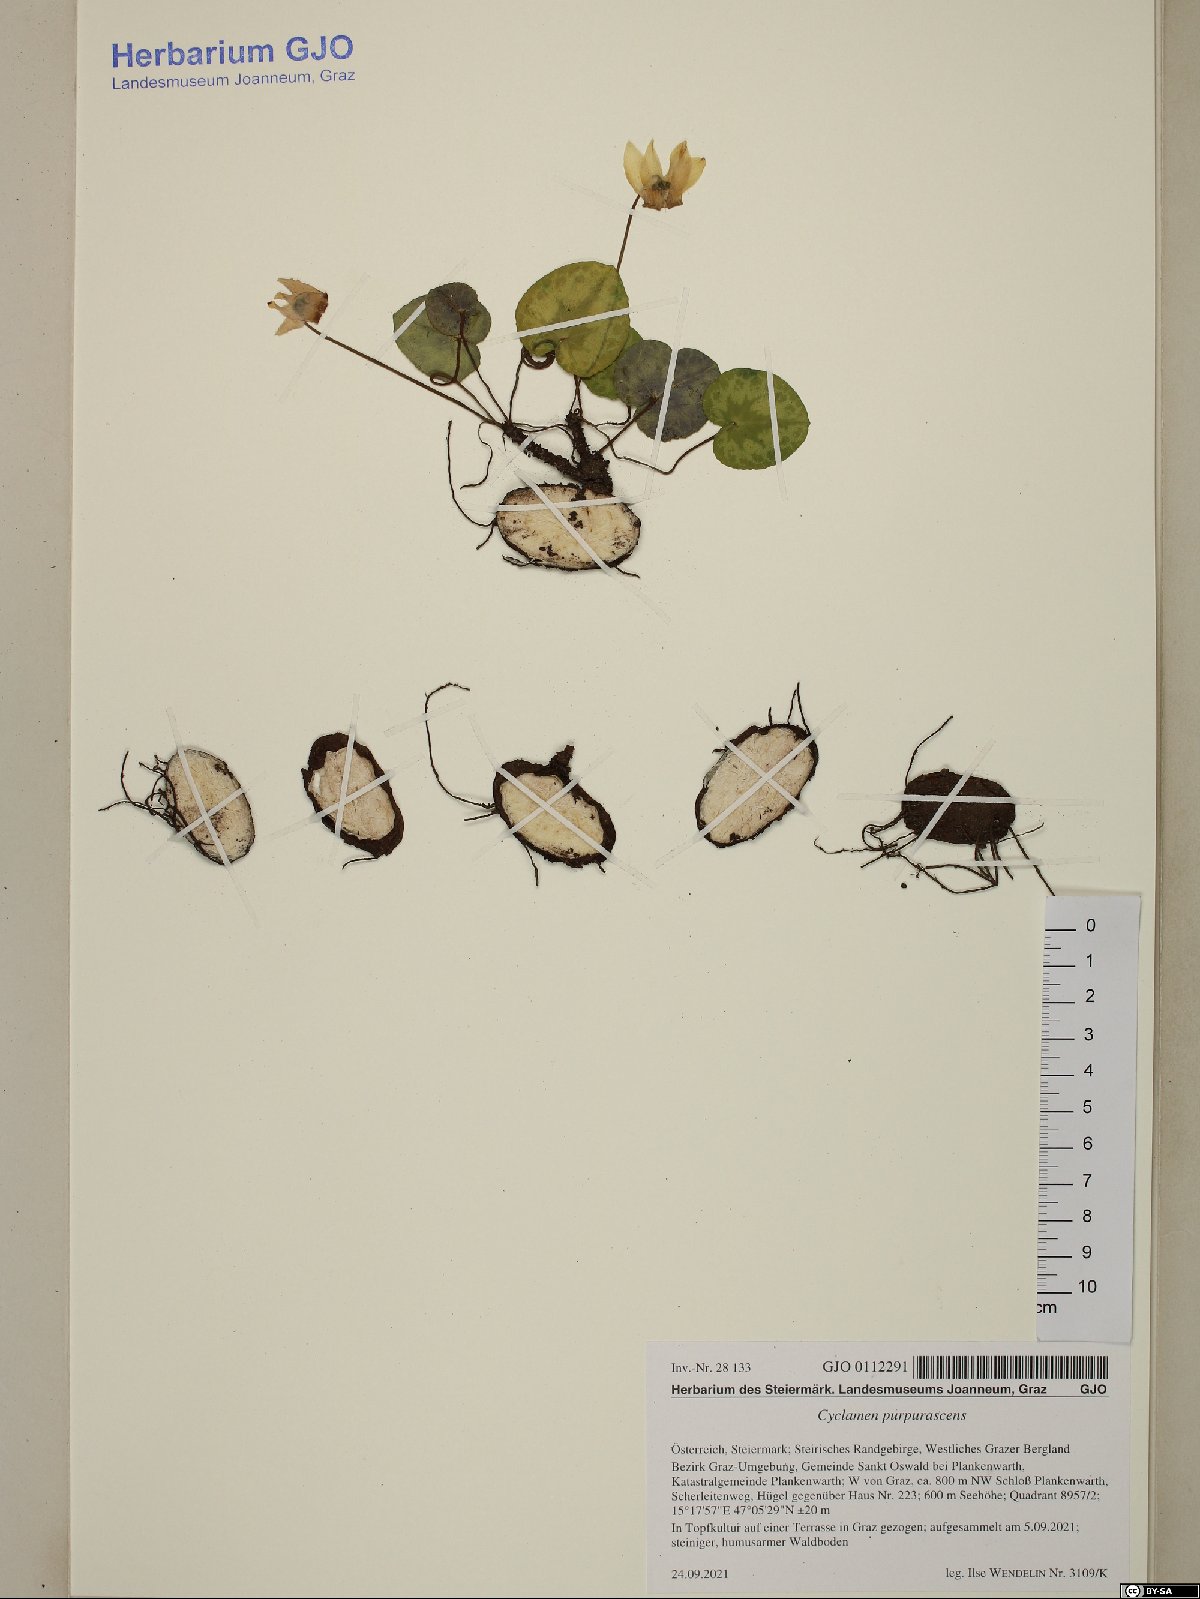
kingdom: Plantae
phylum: Tracheophyta
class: Magnoliopsida
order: Ericales
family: Primulaceae
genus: Cyclamen
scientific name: Cyclamen purpurascens
